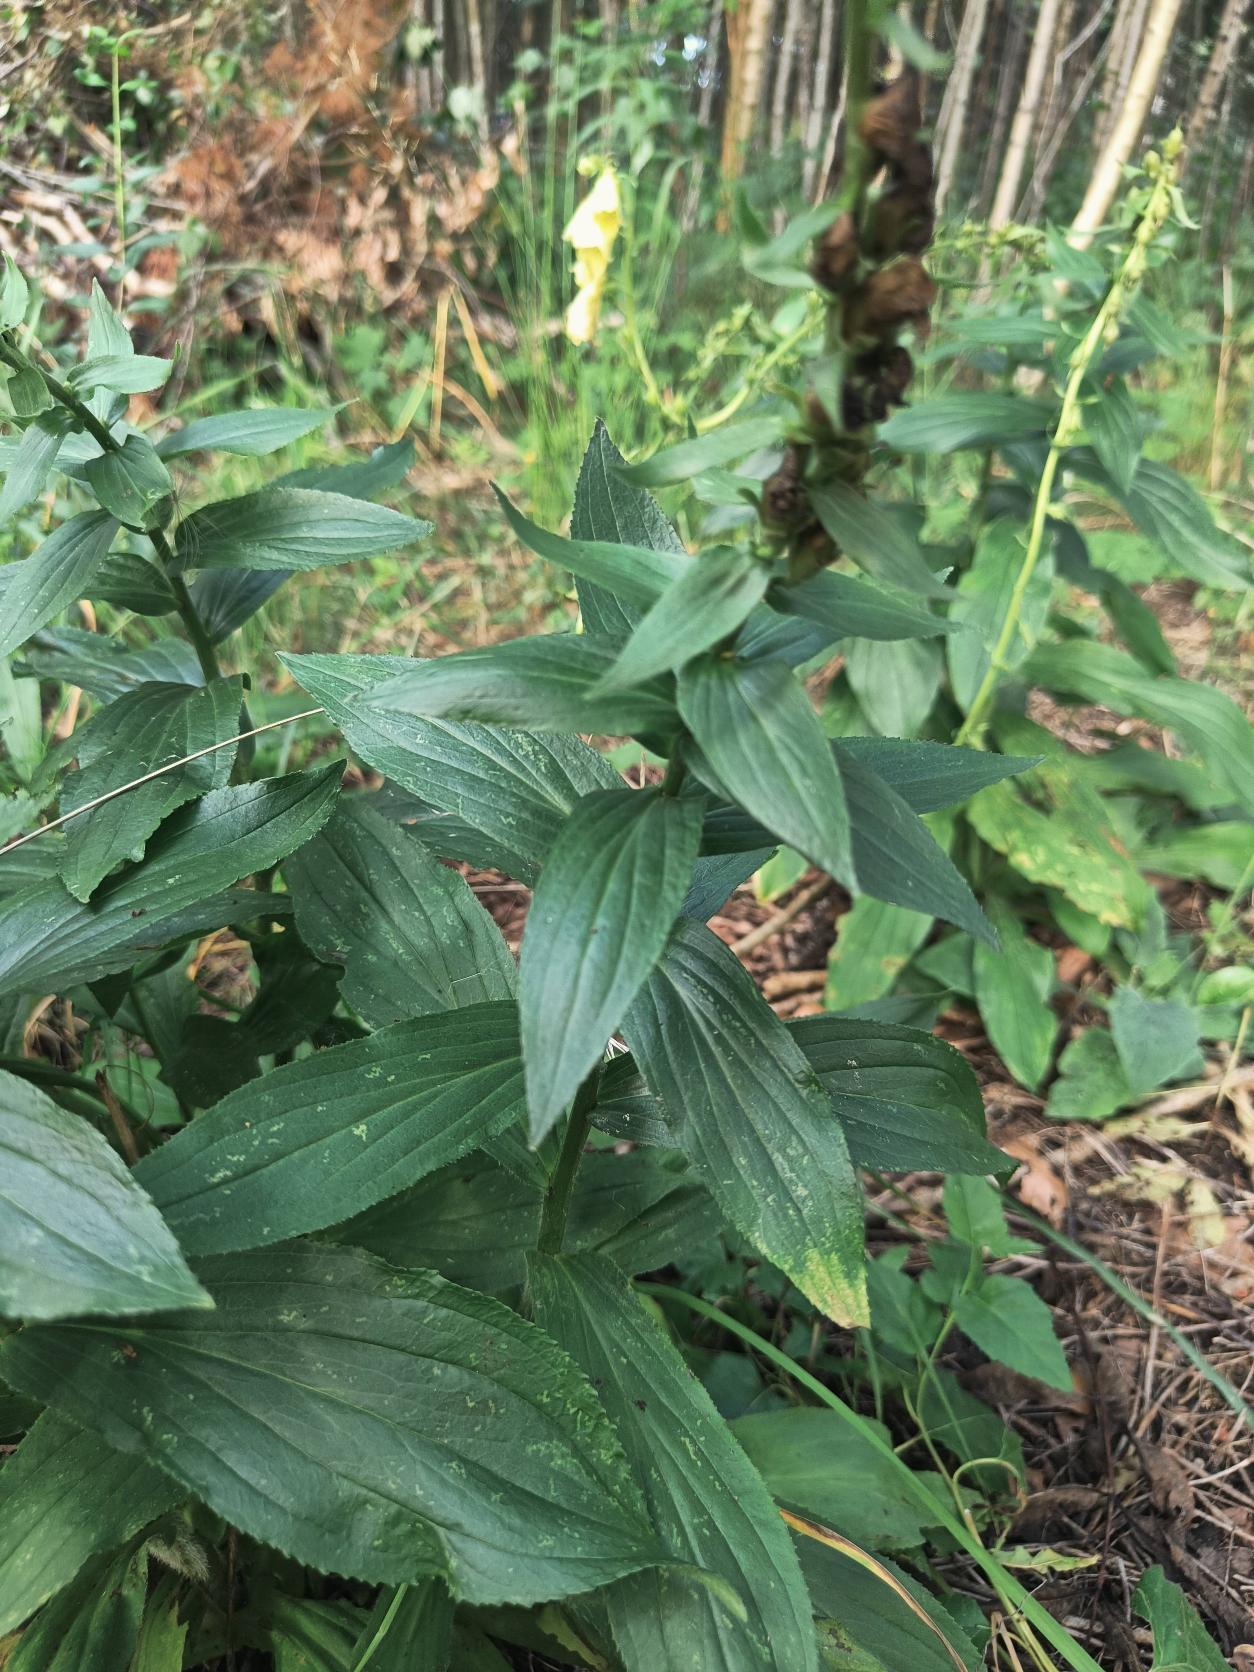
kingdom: Plantae
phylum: Tracheophyta
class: Magnoliopsida
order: Lamiales
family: Plantaginaceae
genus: Digitalis
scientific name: Digitalis grandiflora
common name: Storblomstret fingerbøl
